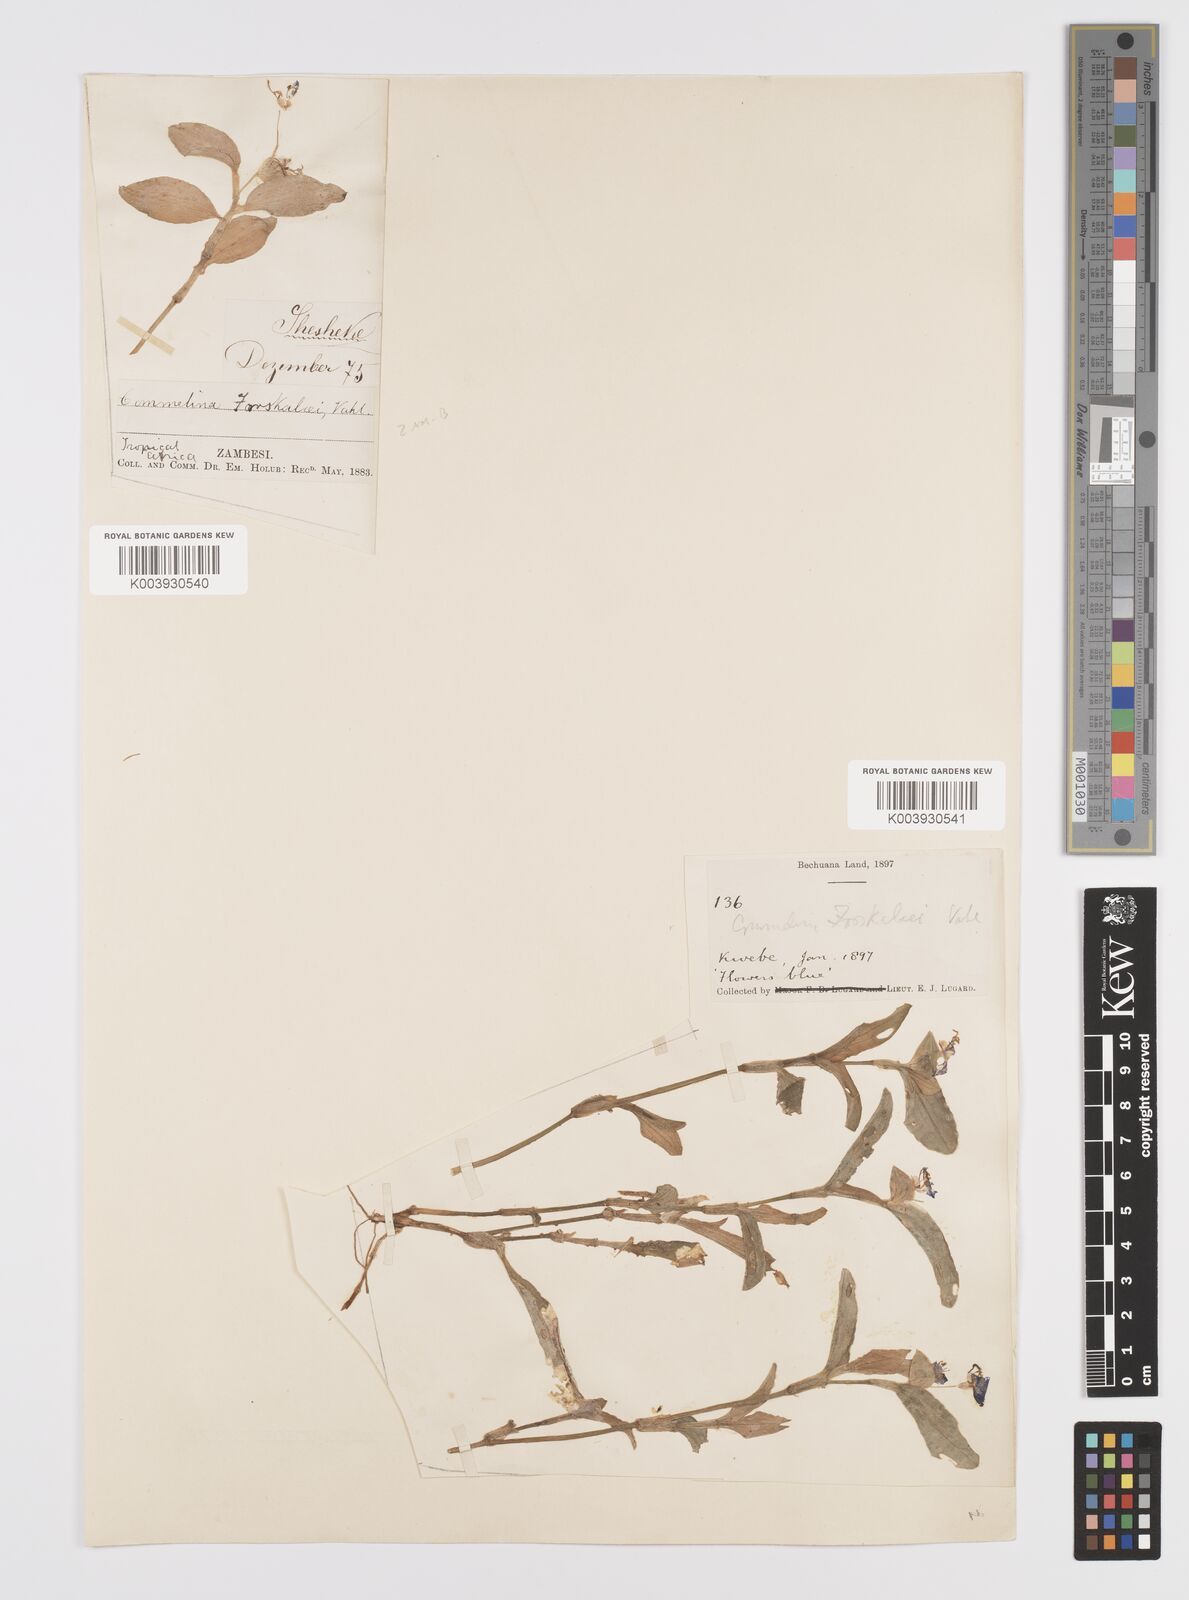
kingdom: Plantae
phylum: Tracheophyta
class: Liliopsida
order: Commelinales
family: Commelinaceae
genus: Commelina
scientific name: Commelina forskaolii
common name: Rat's ear
